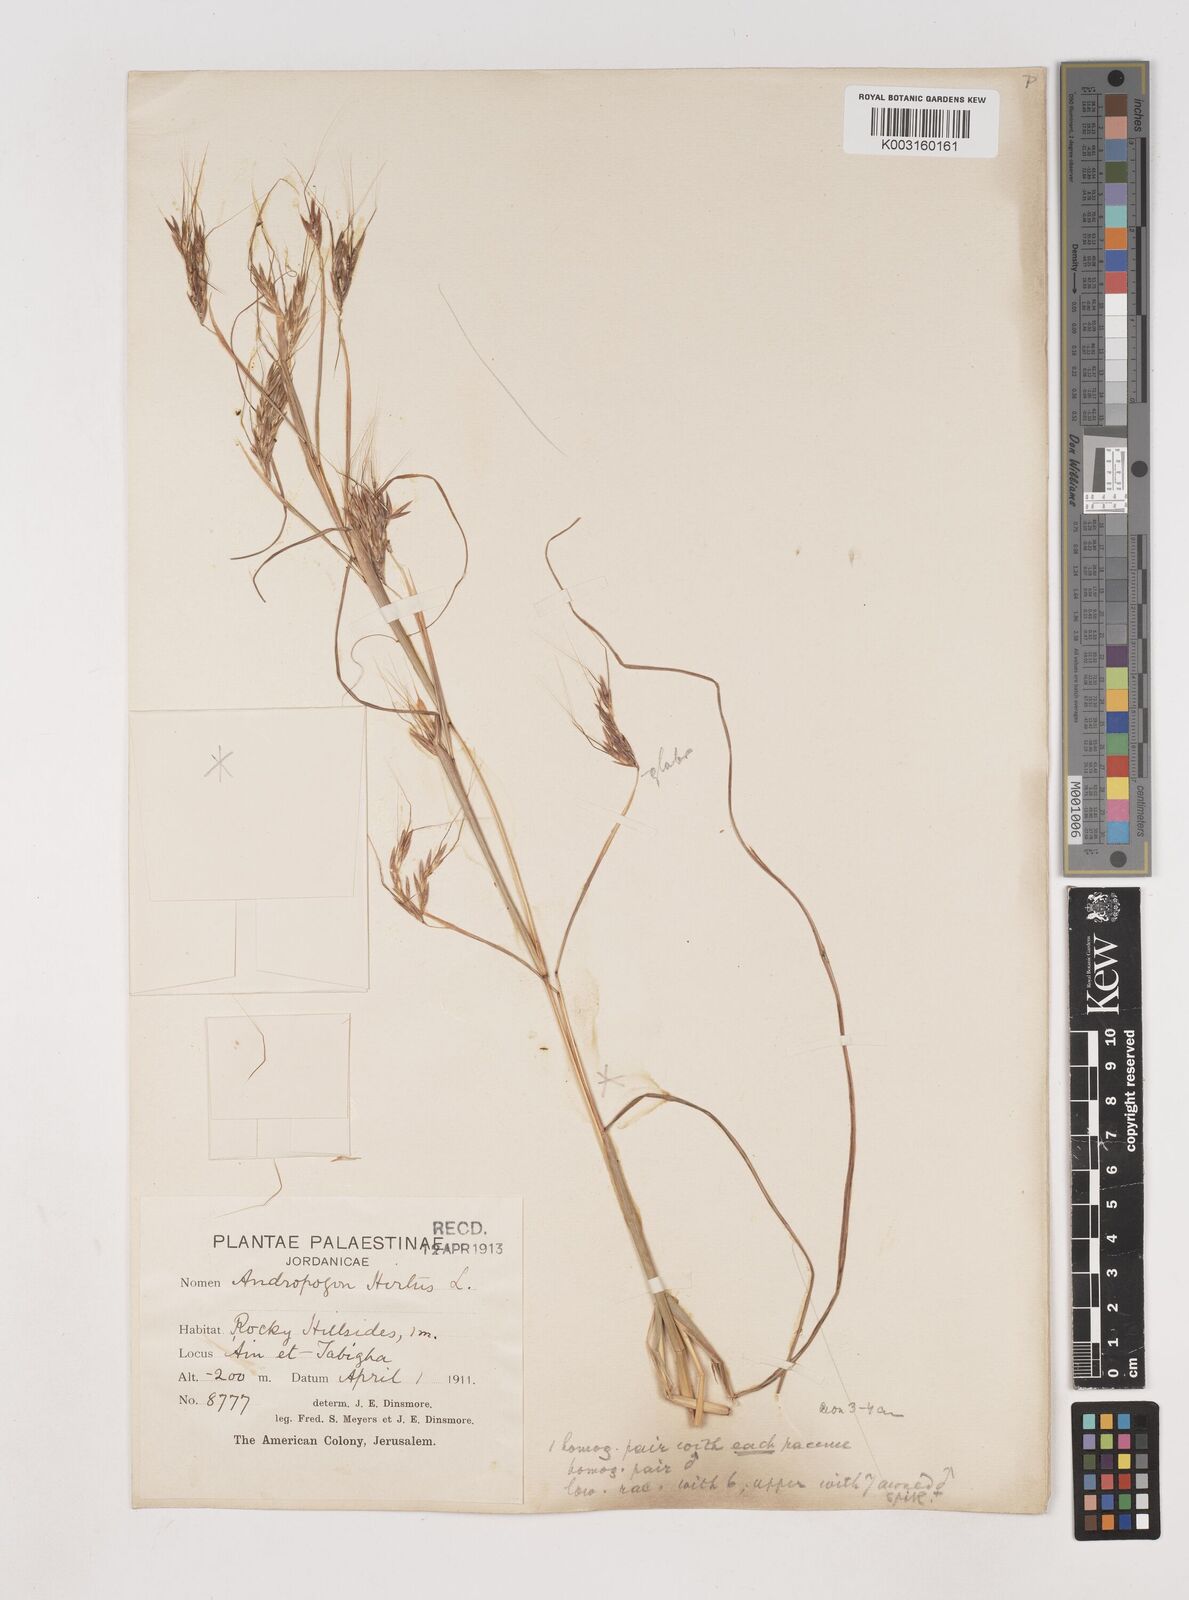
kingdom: Plantae
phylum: Tracheophyta
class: Liliopsida
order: Poales
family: Poaceae
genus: Hyparrhenia
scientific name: Hyparrhenia hirta
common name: Thatching grass
